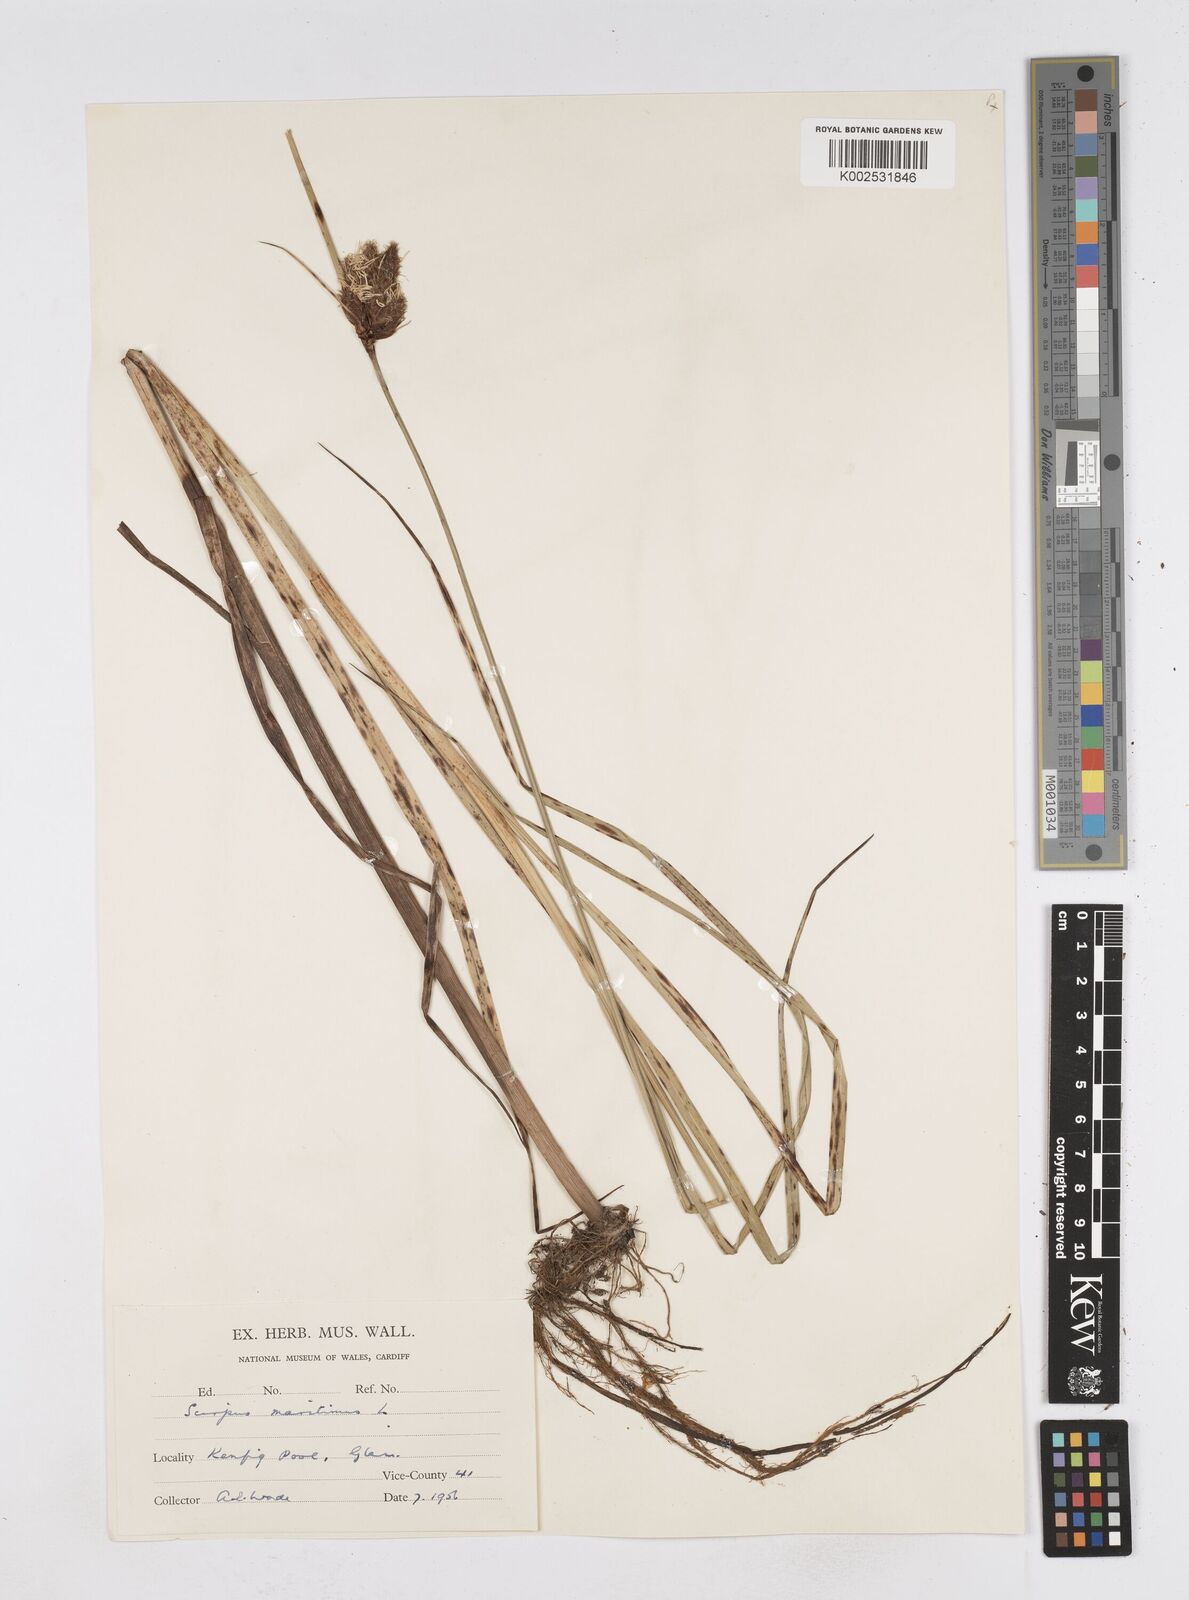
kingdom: Plantae
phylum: Tracheophyta
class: Liliopsida
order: Poales
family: Cyperaceae
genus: Bolboschoenus
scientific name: Bolboschoenus maritimus
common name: Sea club-rush
